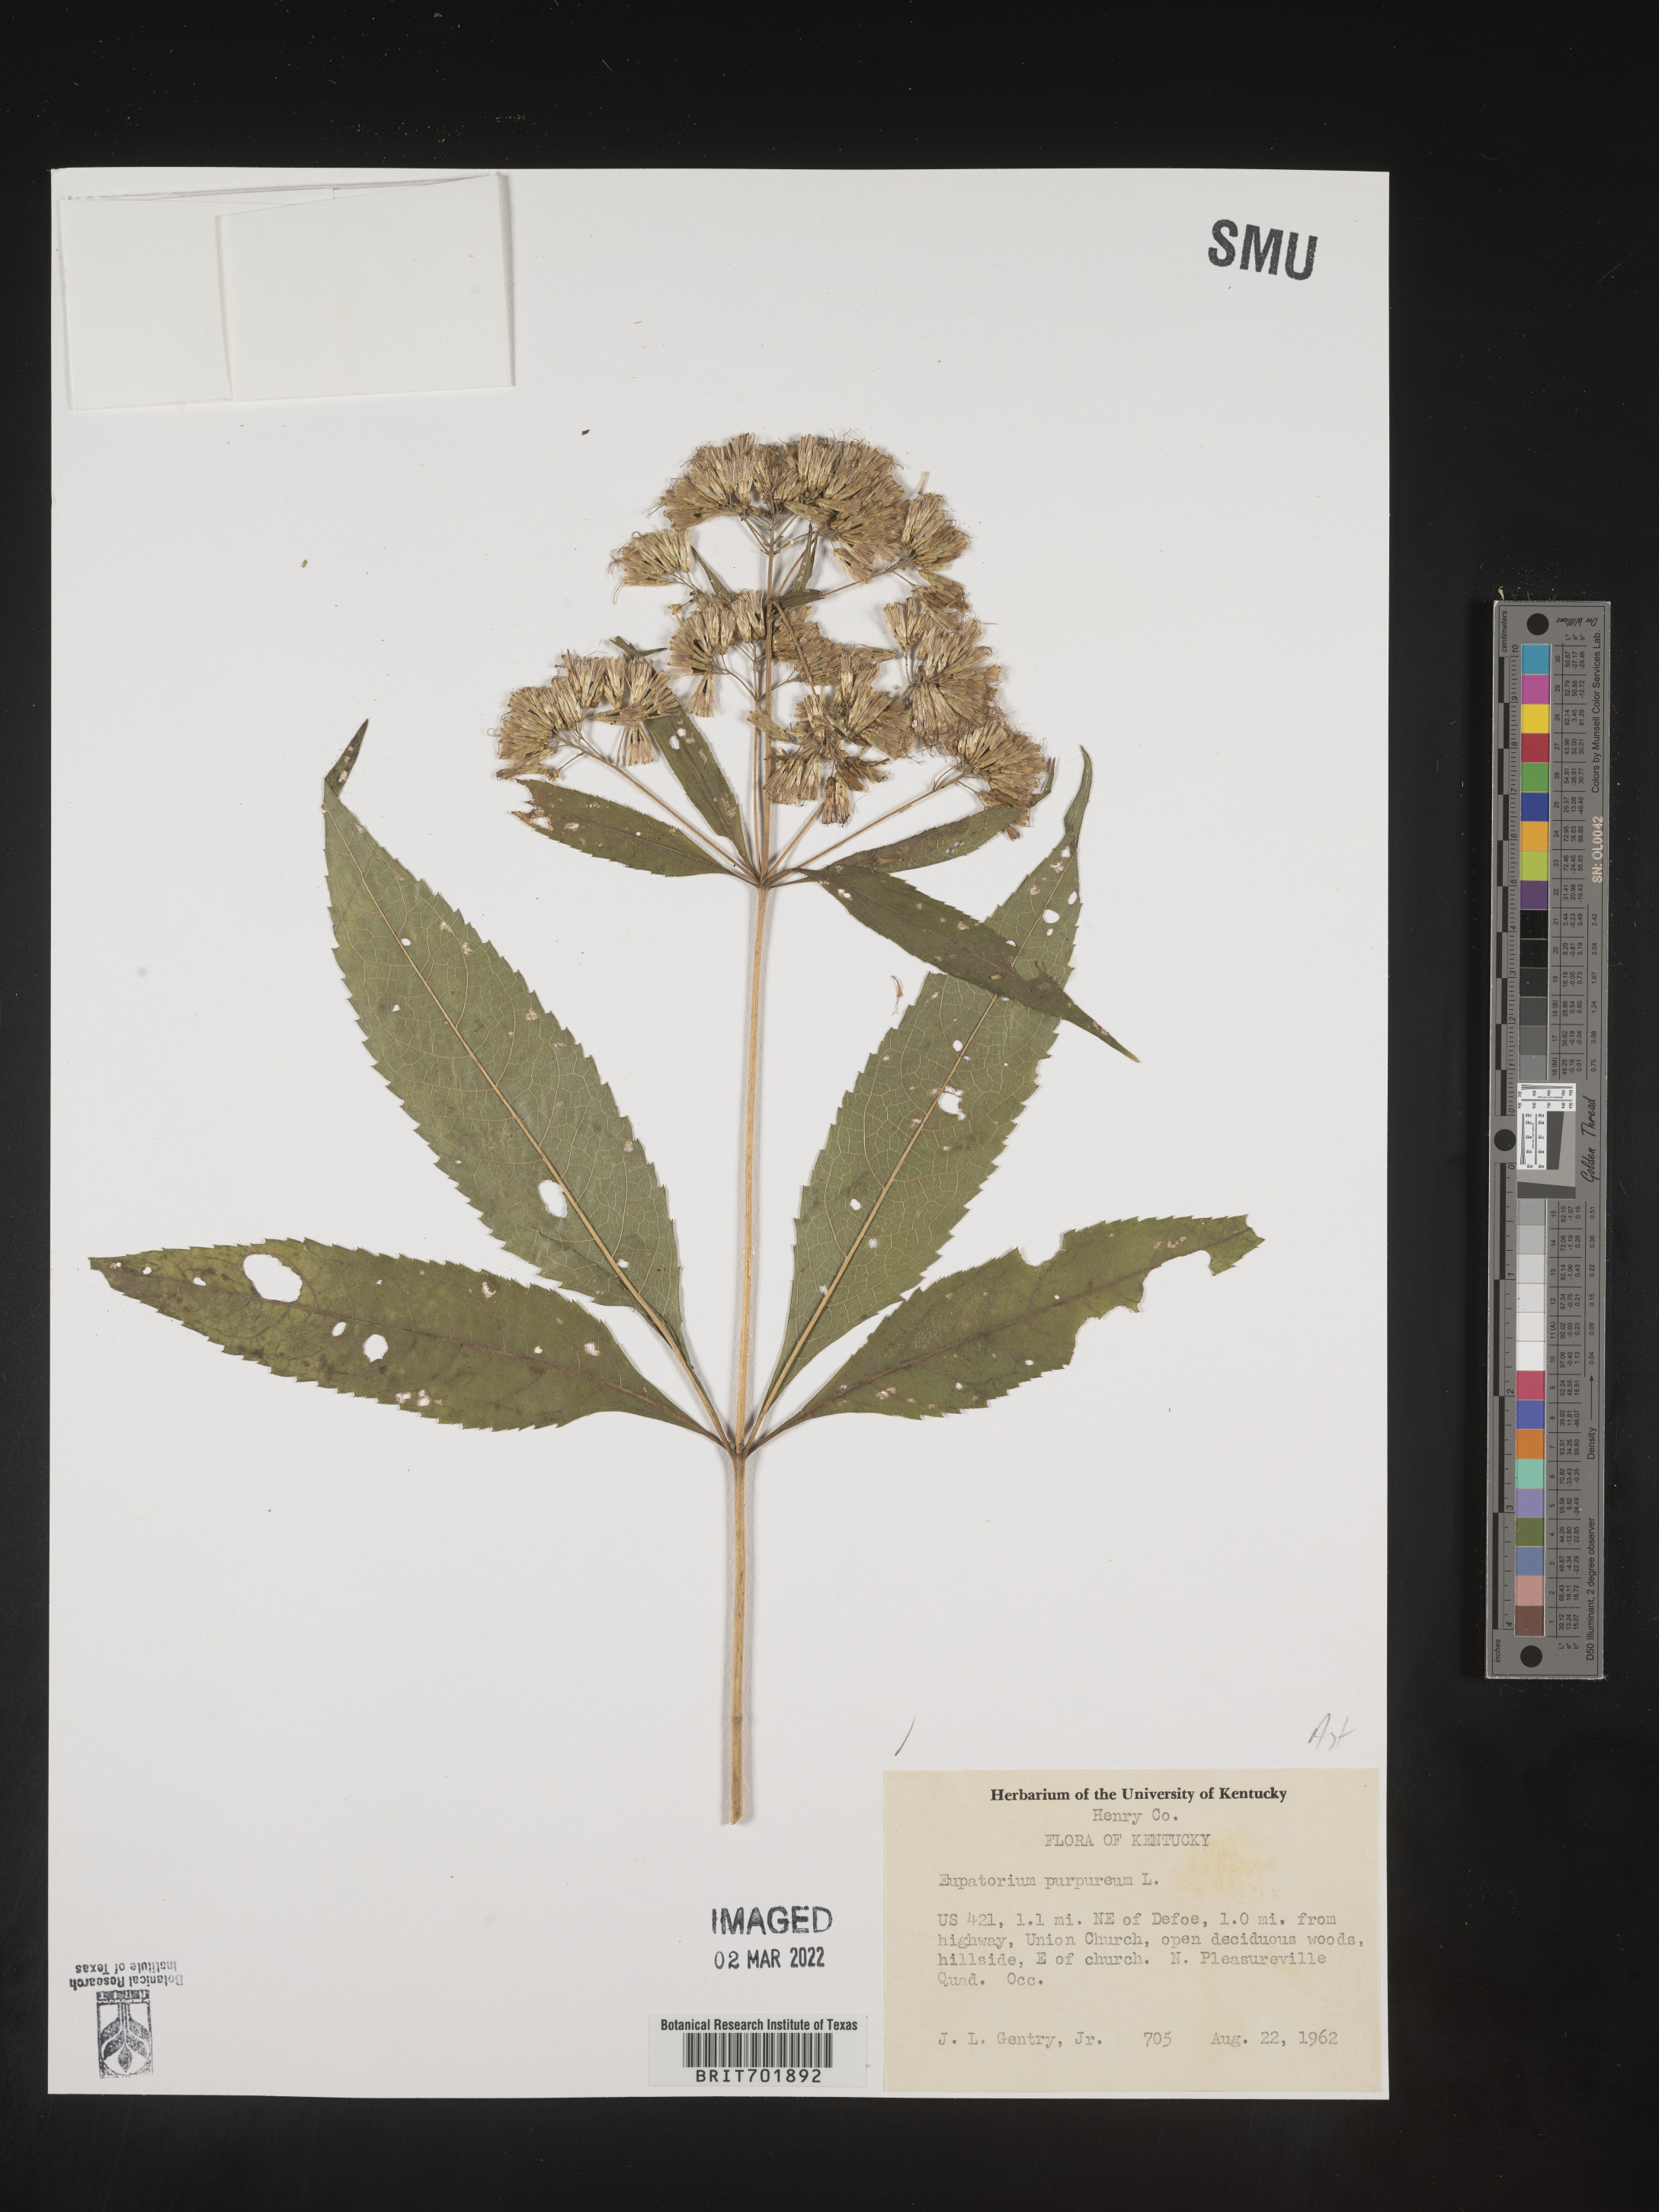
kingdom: Plantae
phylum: Tracheophyta
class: Magnoliopsida
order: Asterales
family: Asteraceae
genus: Eupatorium
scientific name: Eupatorium quaternum
